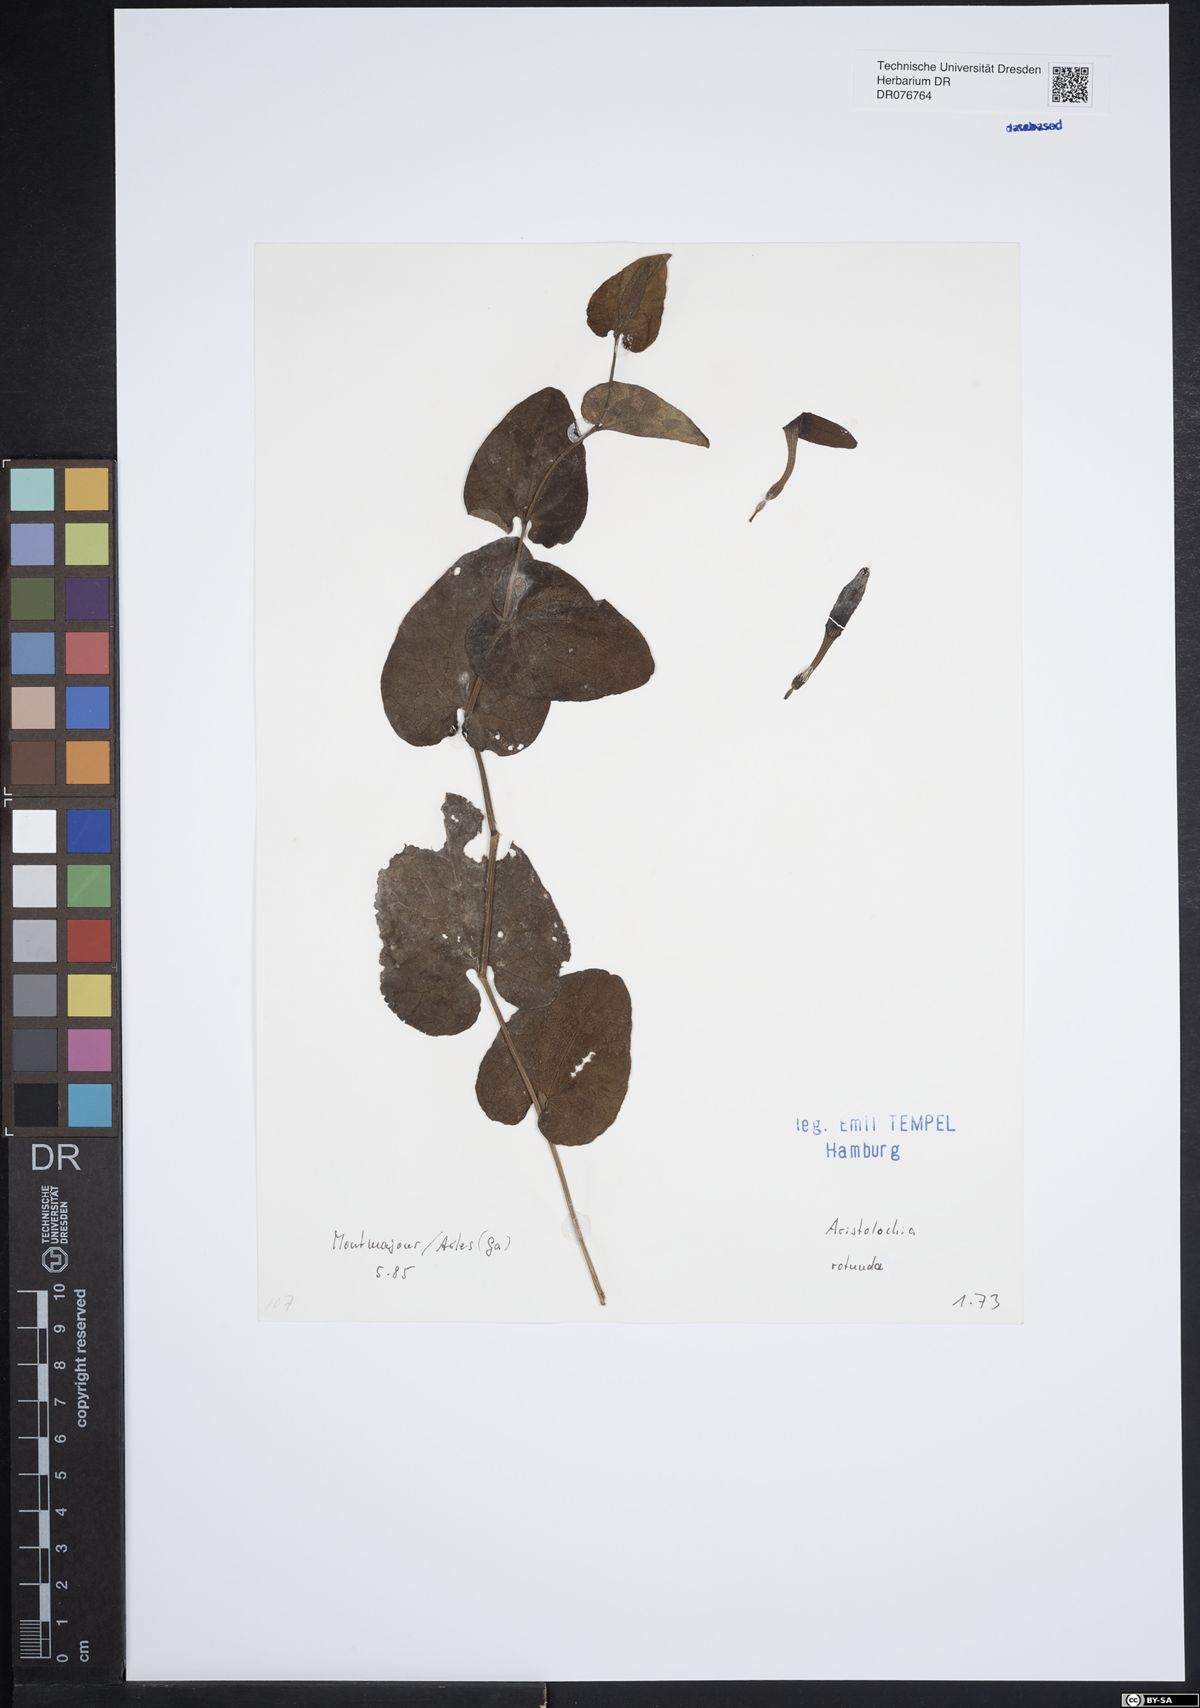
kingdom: Plantae
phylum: Tracheophyta
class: Magnoliopsida
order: Piperales
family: Aristolochiaceae
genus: Aristolochia
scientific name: Aristolochia rotunda
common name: Smearwort
